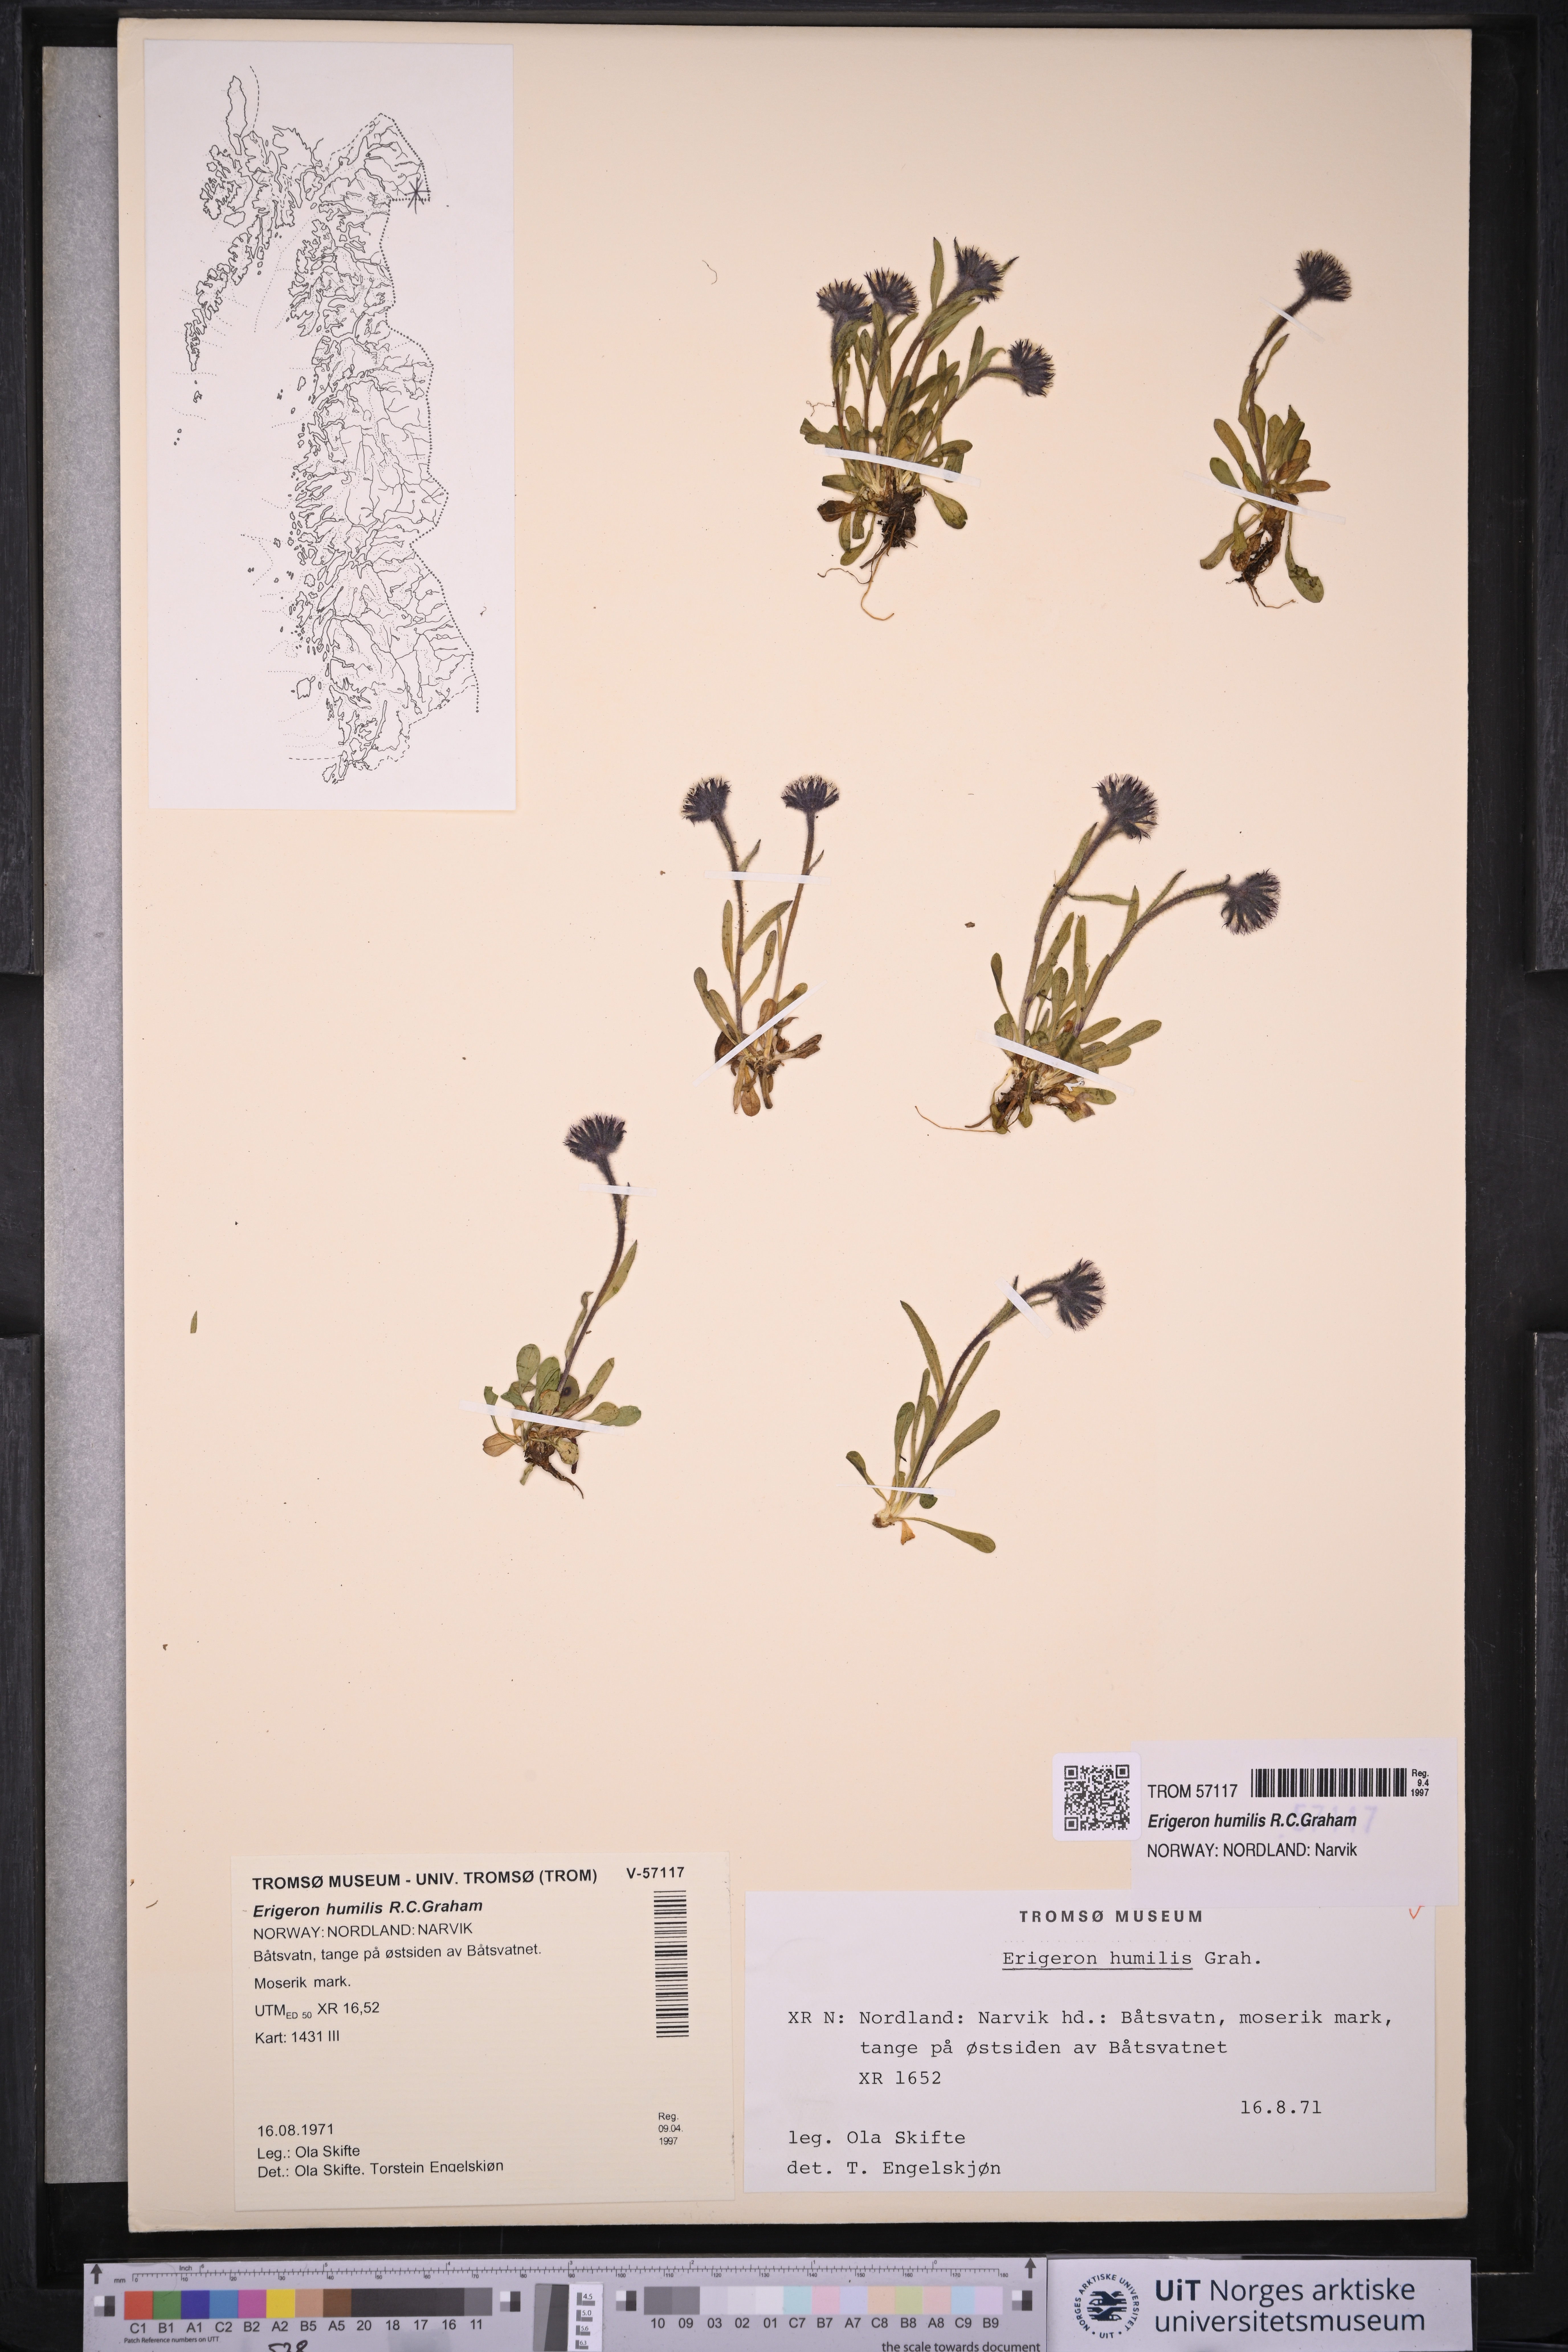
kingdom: Plantae
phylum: Tracheophyta
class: Magnoliopsida
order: Asterales
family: Asteraceae
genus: Erigeron
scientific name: Erigeron humilis
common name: Arctic-alpine fleabane
